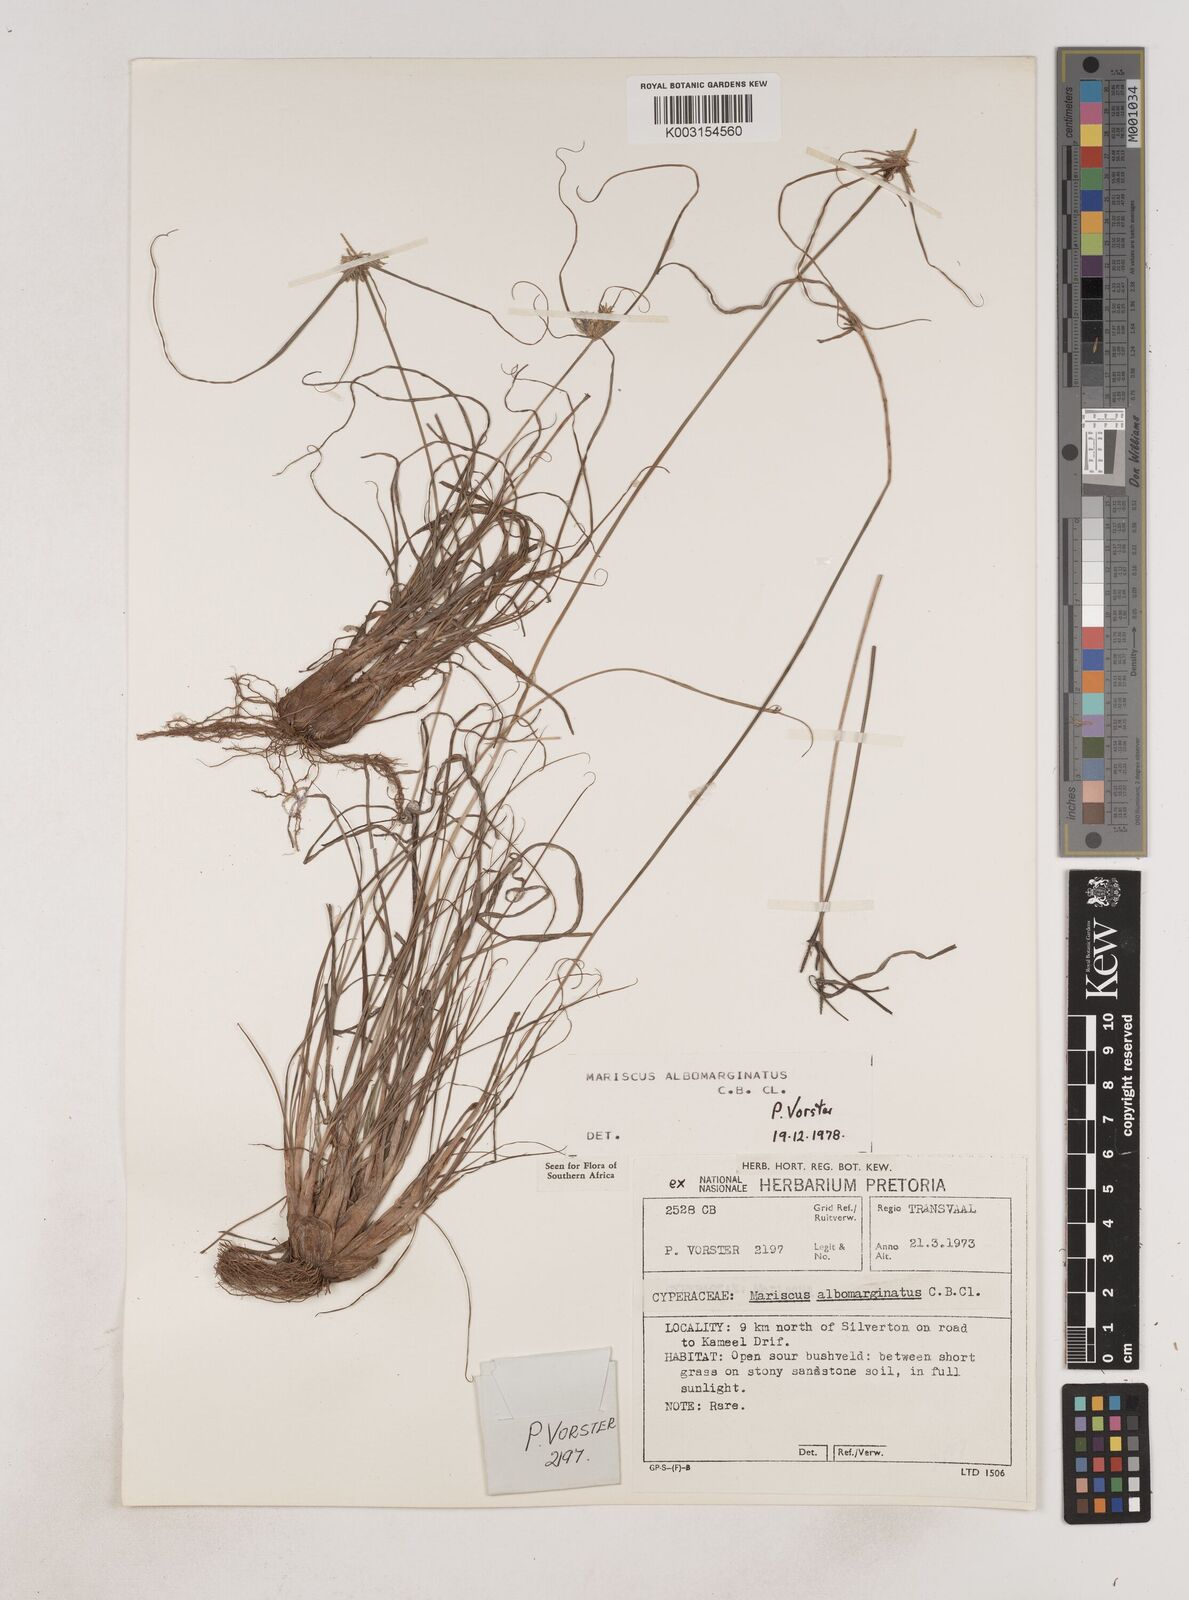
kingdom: Plantae
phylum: Tracheophyta
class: Liliopsida
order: Poales
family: Cyperaceae
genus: Cyperus
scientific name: Cyperus indecorus
